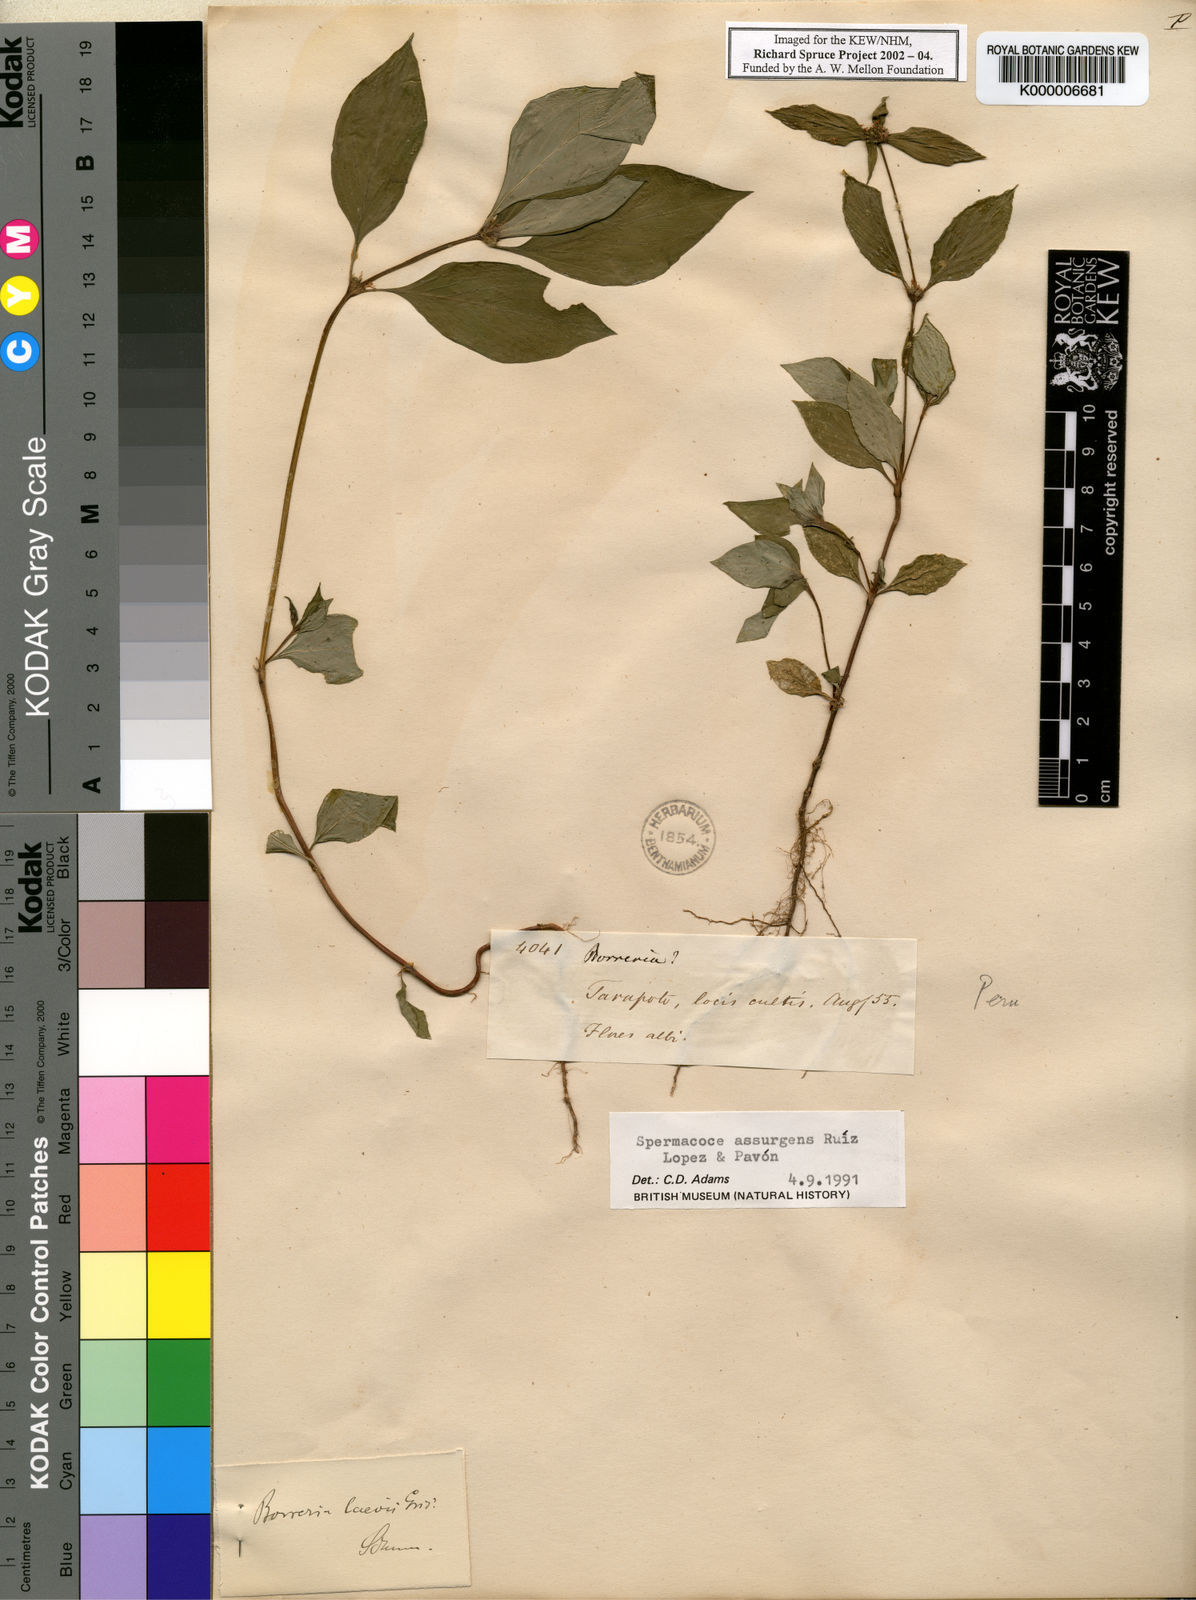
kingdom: Plantae
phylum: Tracheophyta
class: Magnoliopsida
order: Gentianales
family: Rubiaceae
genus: Spermacoce
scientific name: Spermacoce tenuior
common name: River false buttonweed
